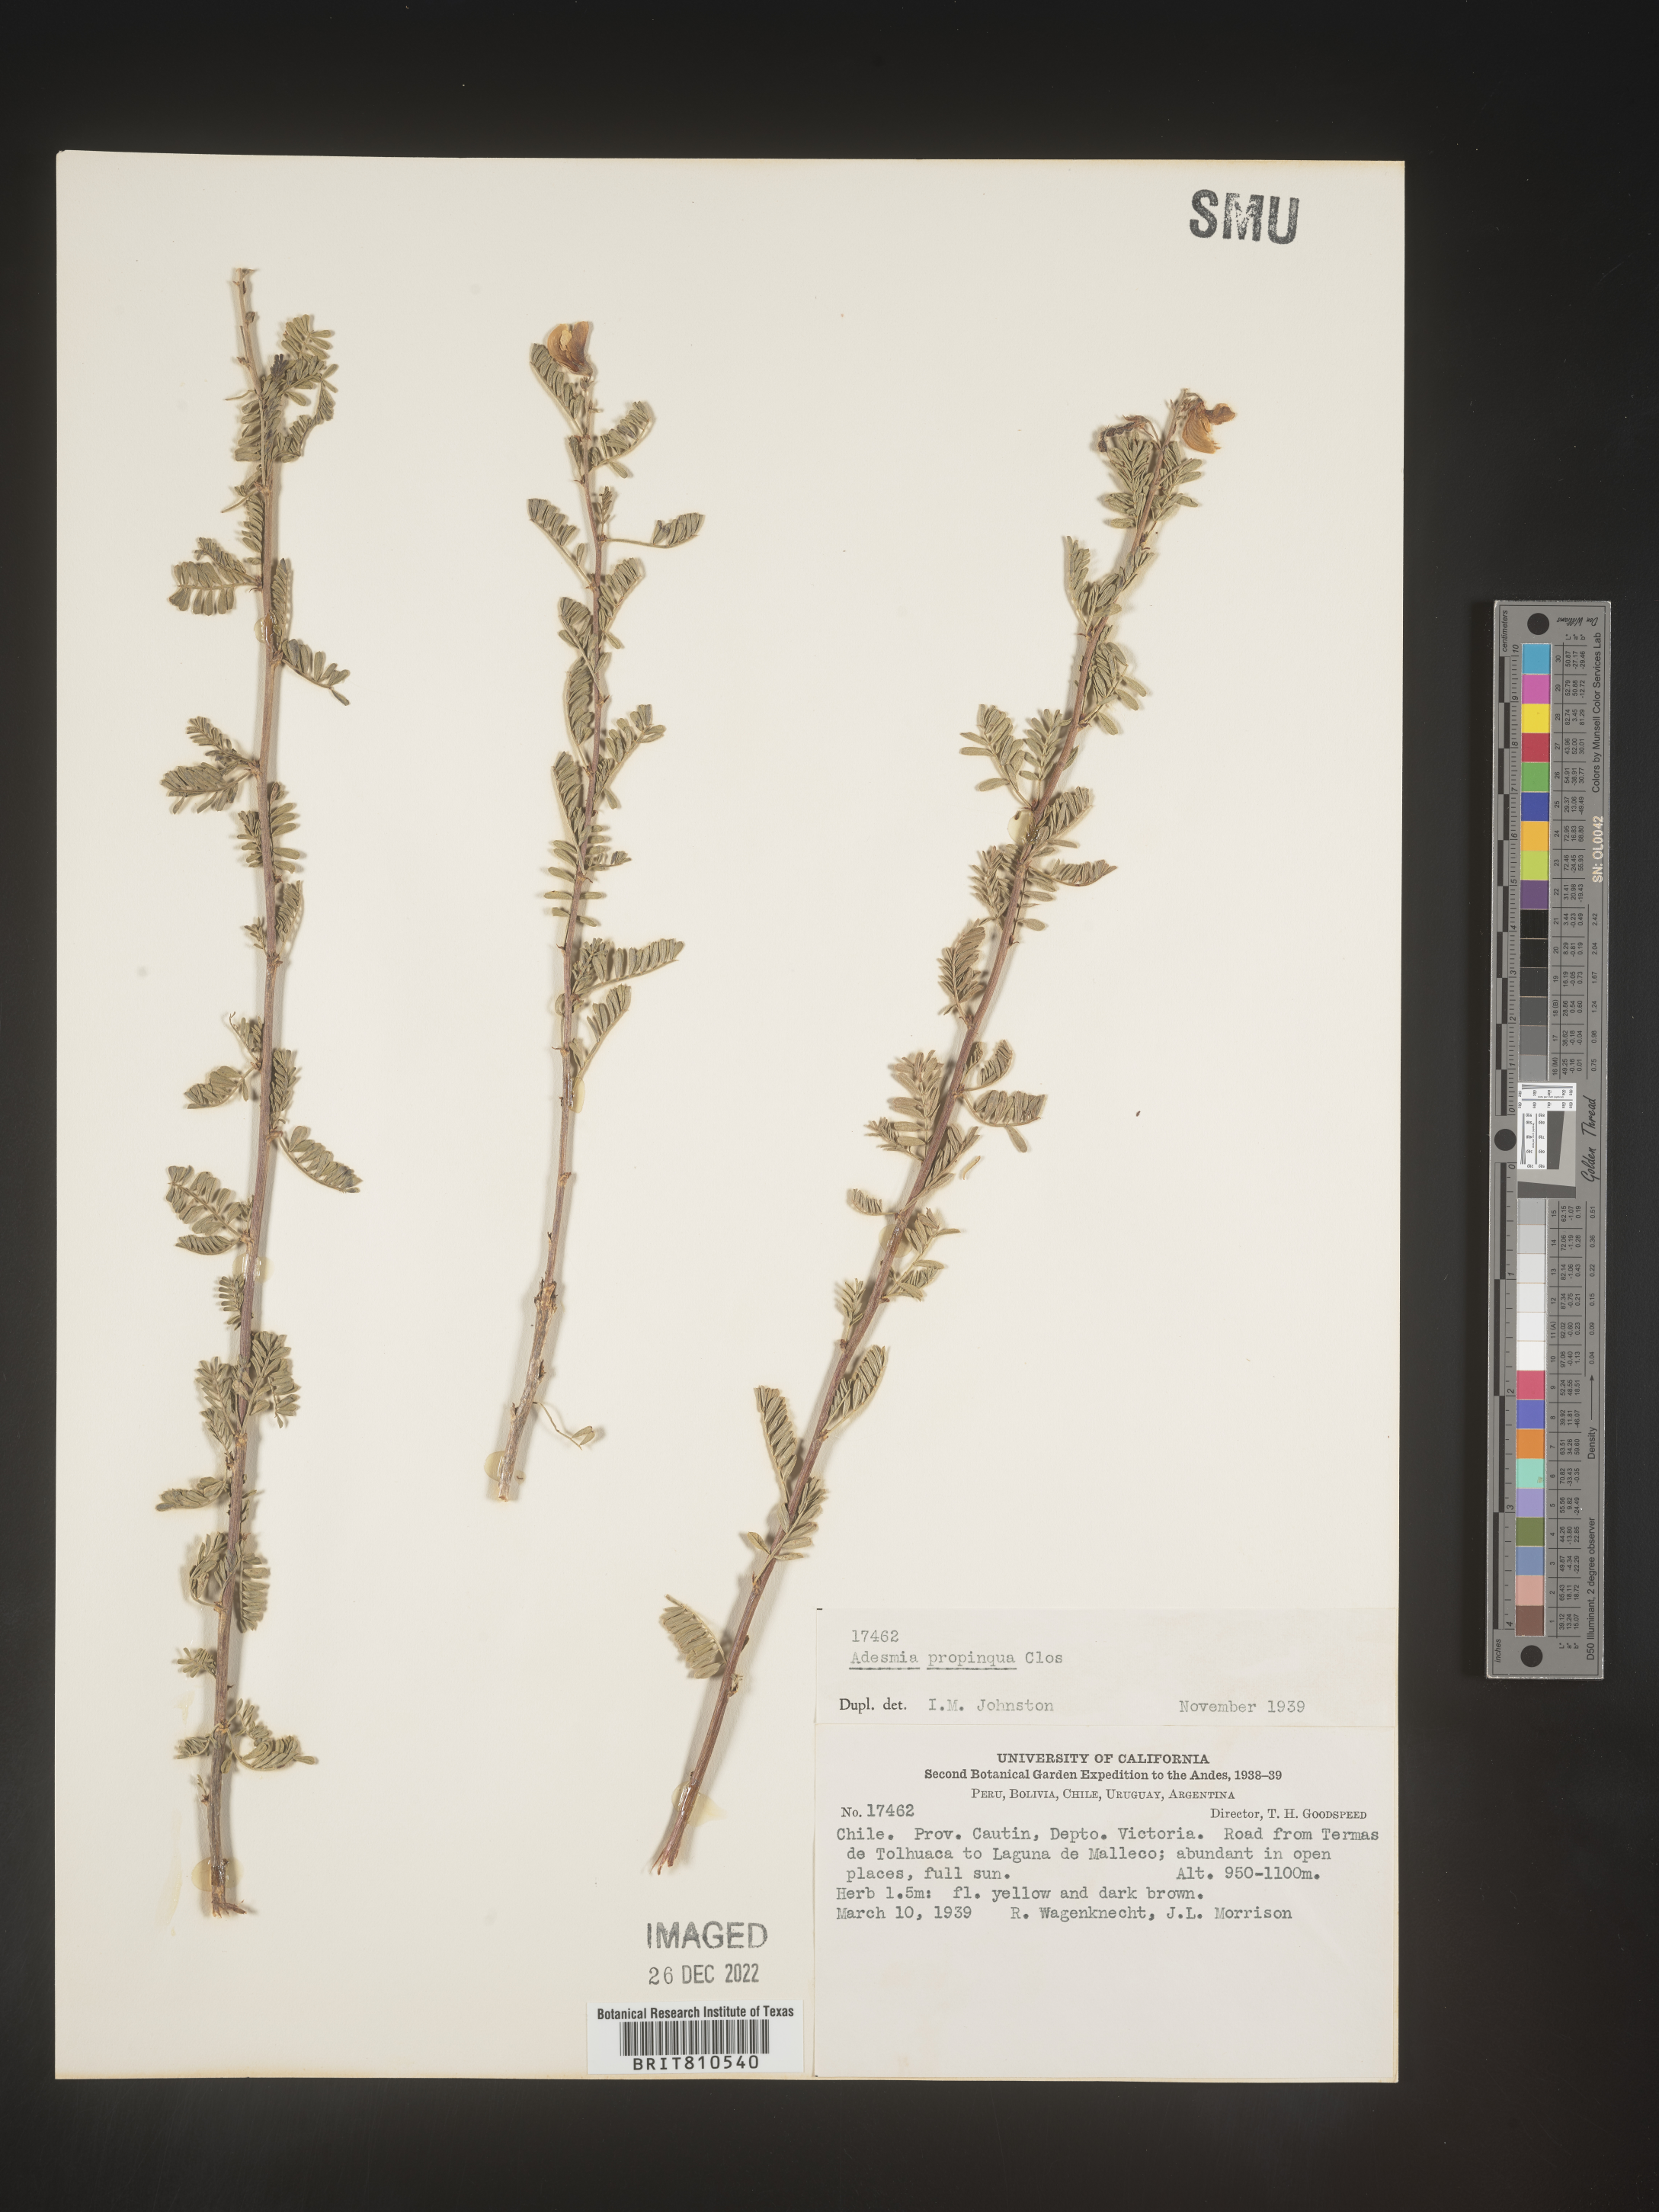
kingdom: Plantae
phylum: Tracheophyta
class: Magnoliopsida
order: Fabales
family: Fabaceae
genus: Adesmia
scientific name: Adesmia
